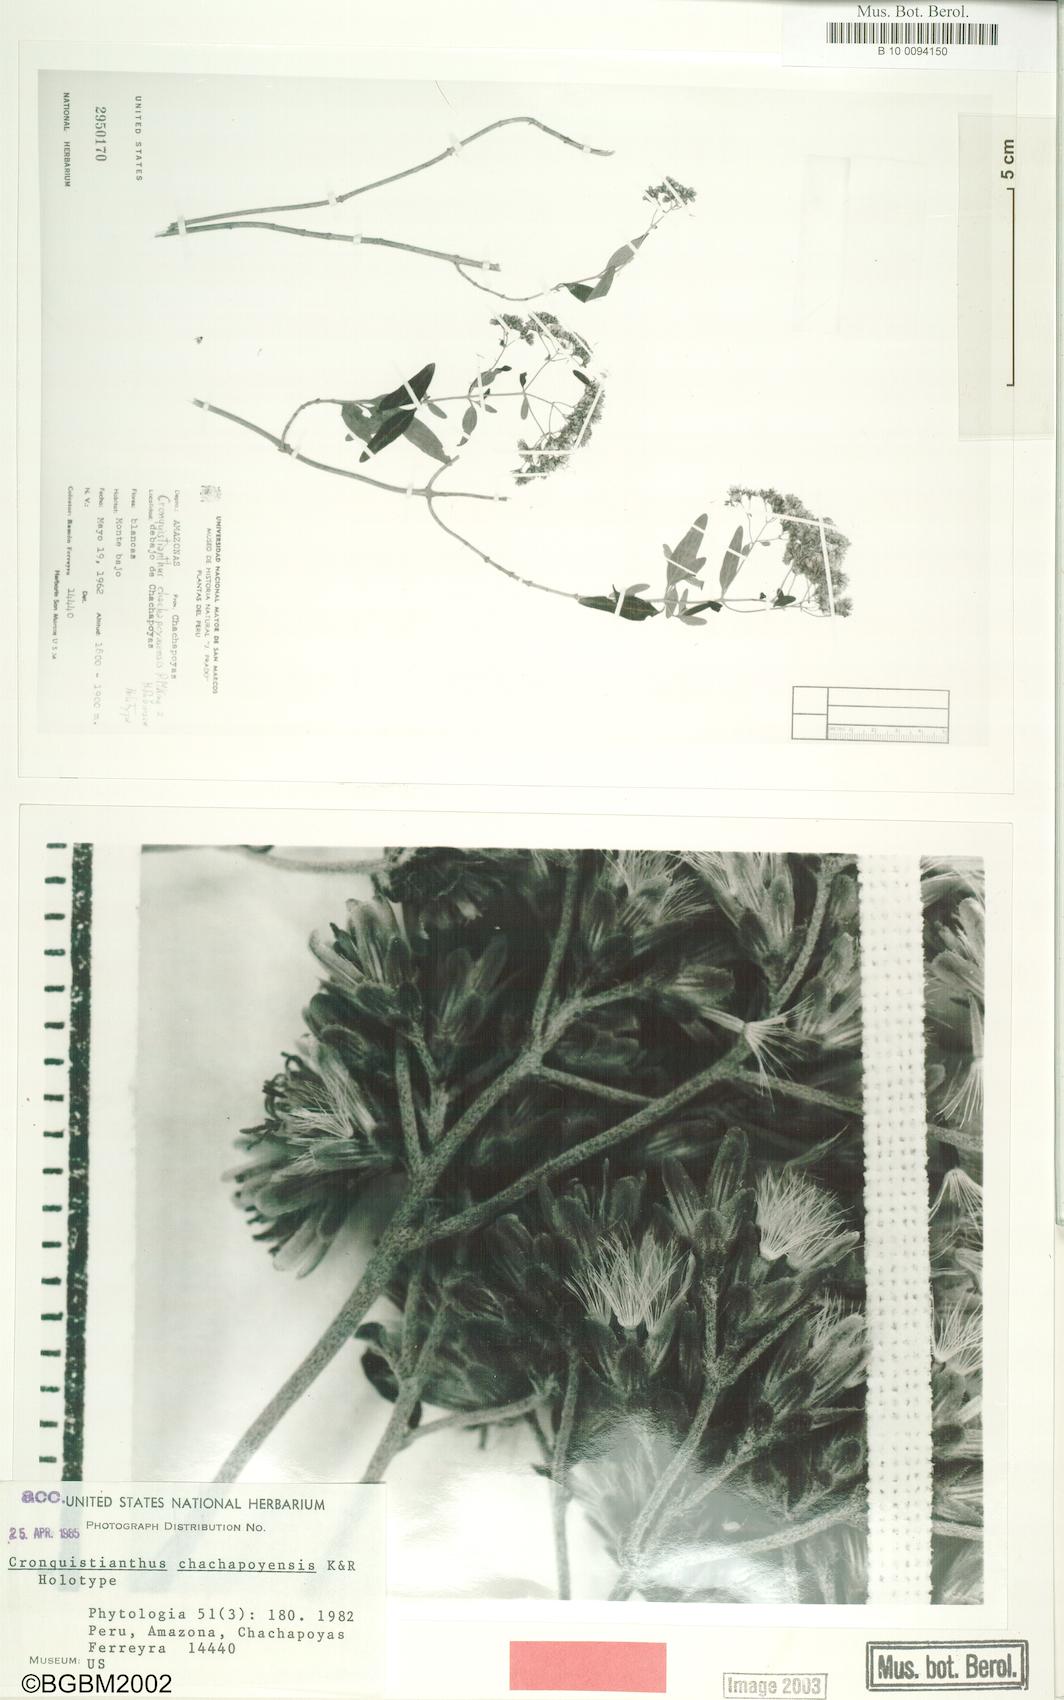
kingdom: Plantae
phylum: Tracheophyta
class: Magnoliopsida
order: Asterales
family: Asteraceae
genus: Cronquistianthus
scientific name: Cronquistianthus chachapoyensis
